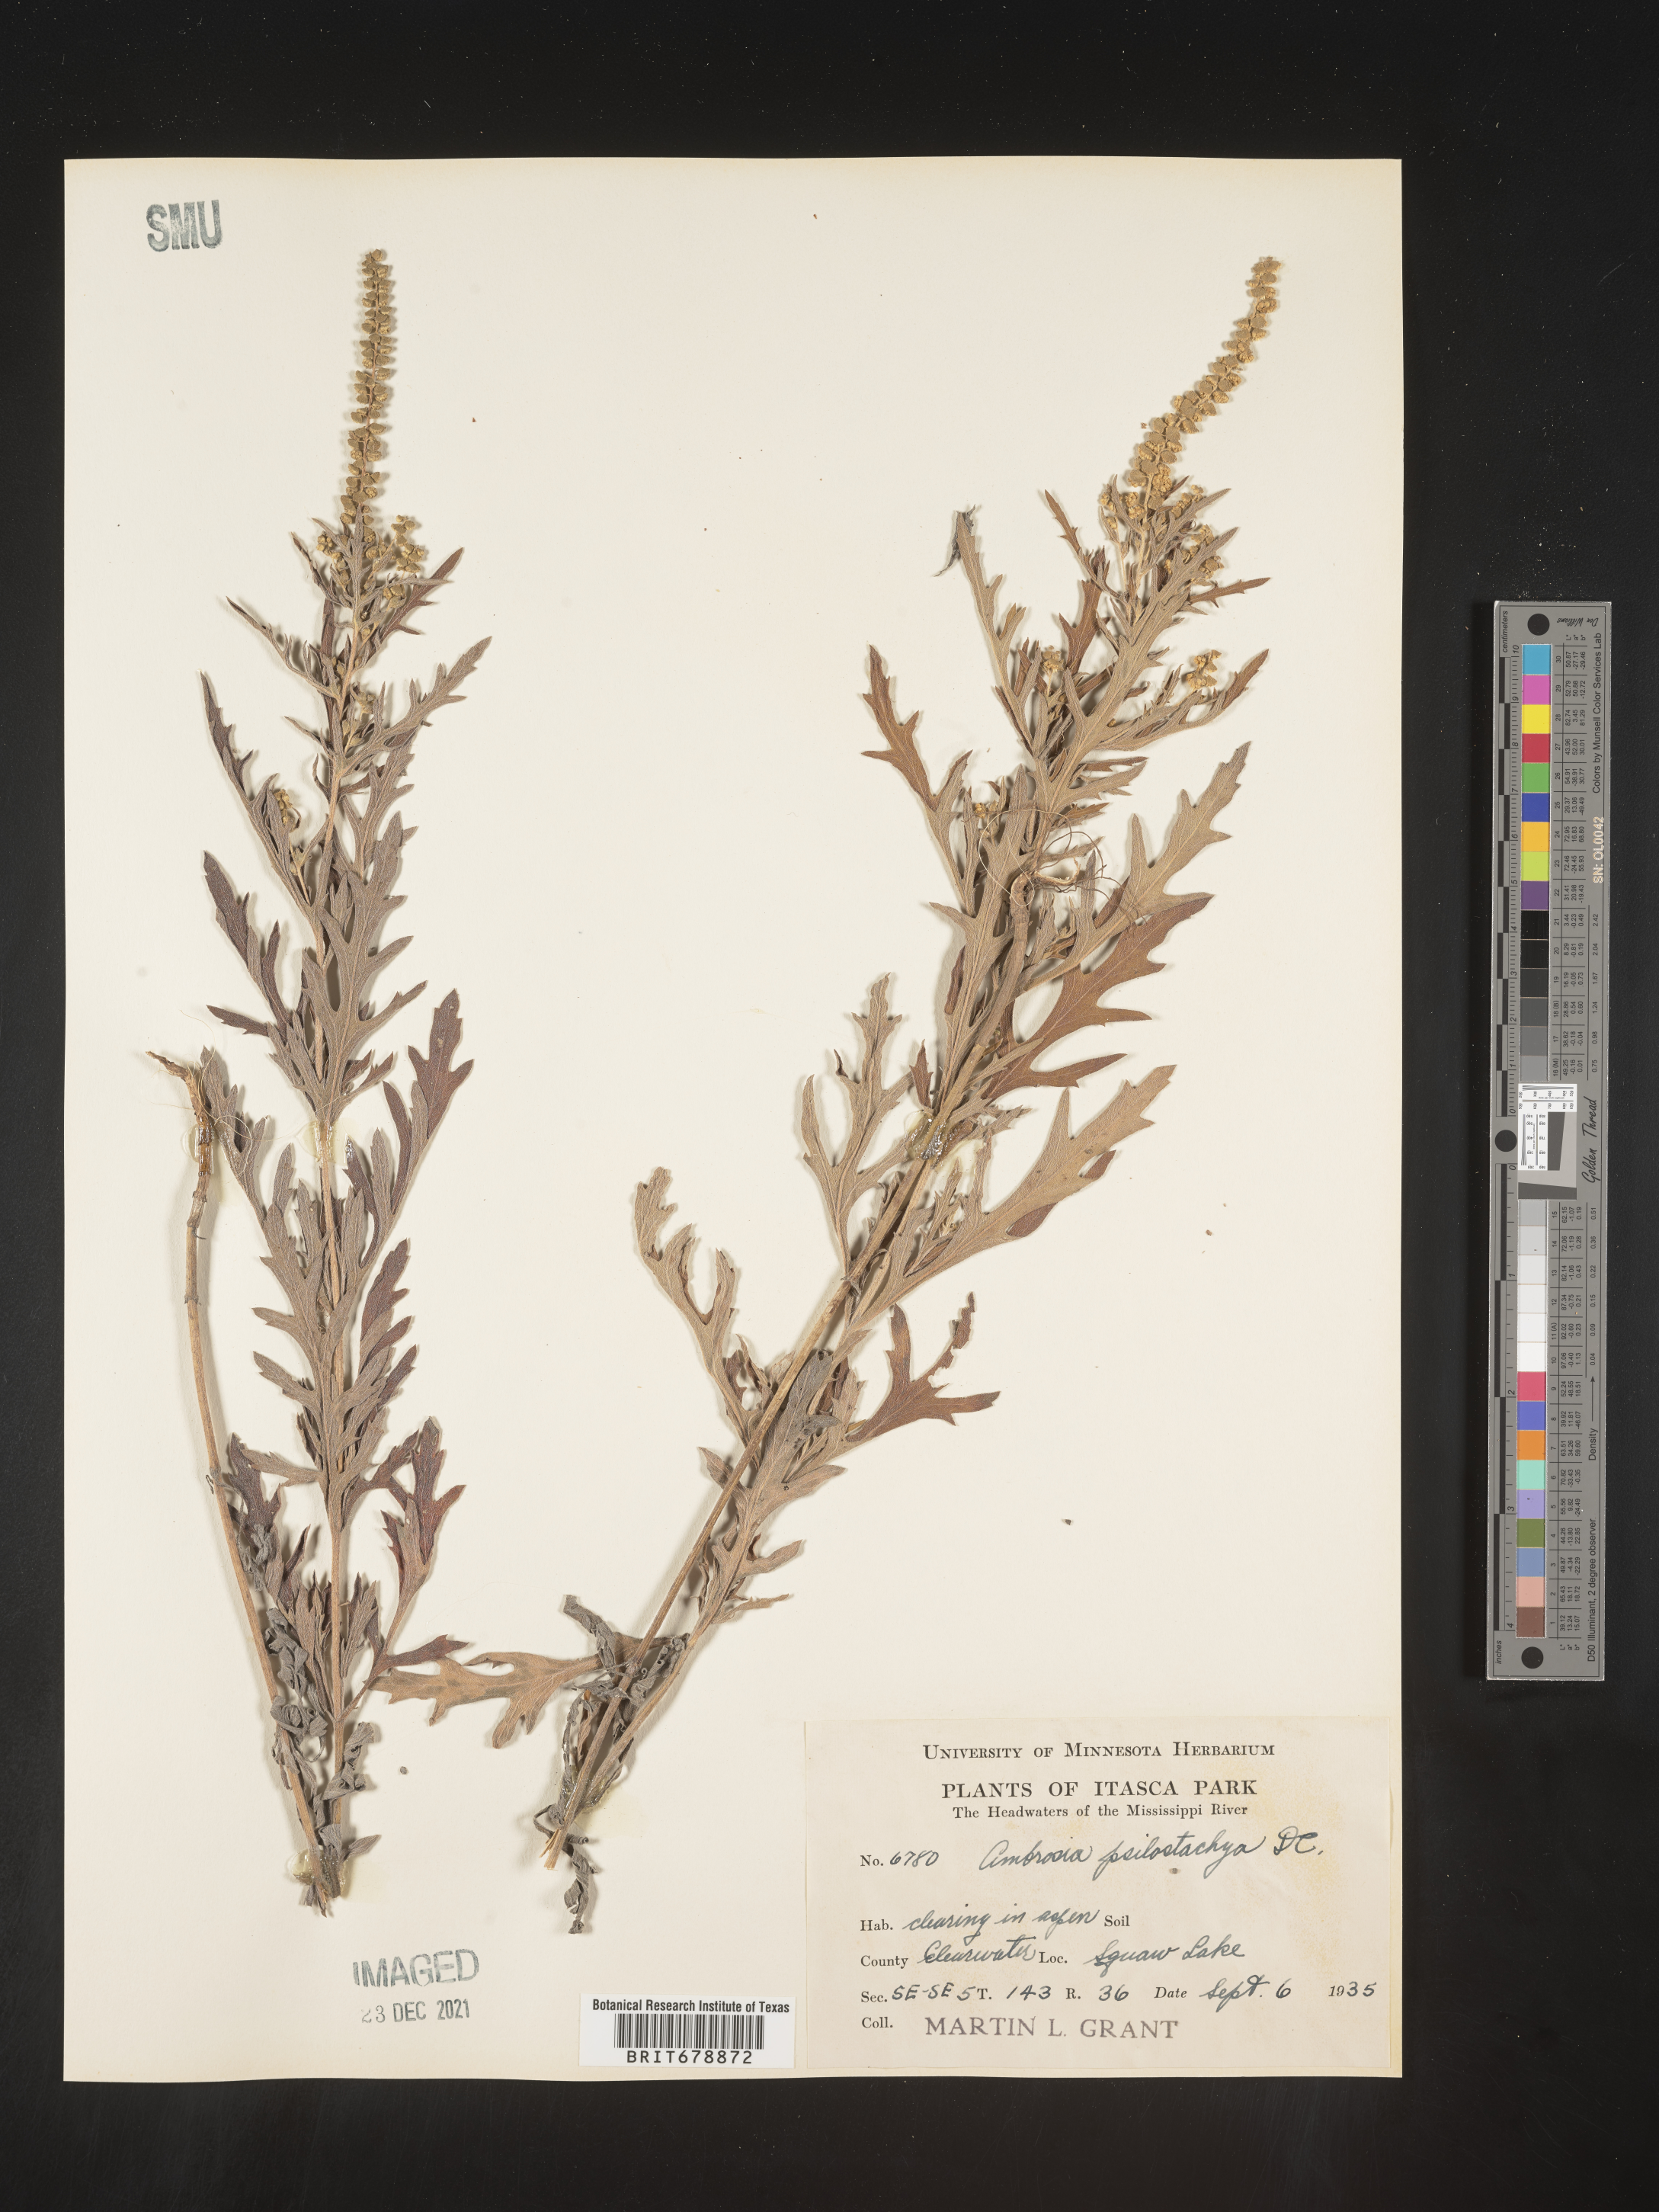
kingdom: Plantae
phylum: Tracheophyta
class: Magnoliopsida
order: Asterales
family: Asteraceae
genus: Ambrosia
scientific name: Ambrosia psilostachya
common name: Perennial ragweed
